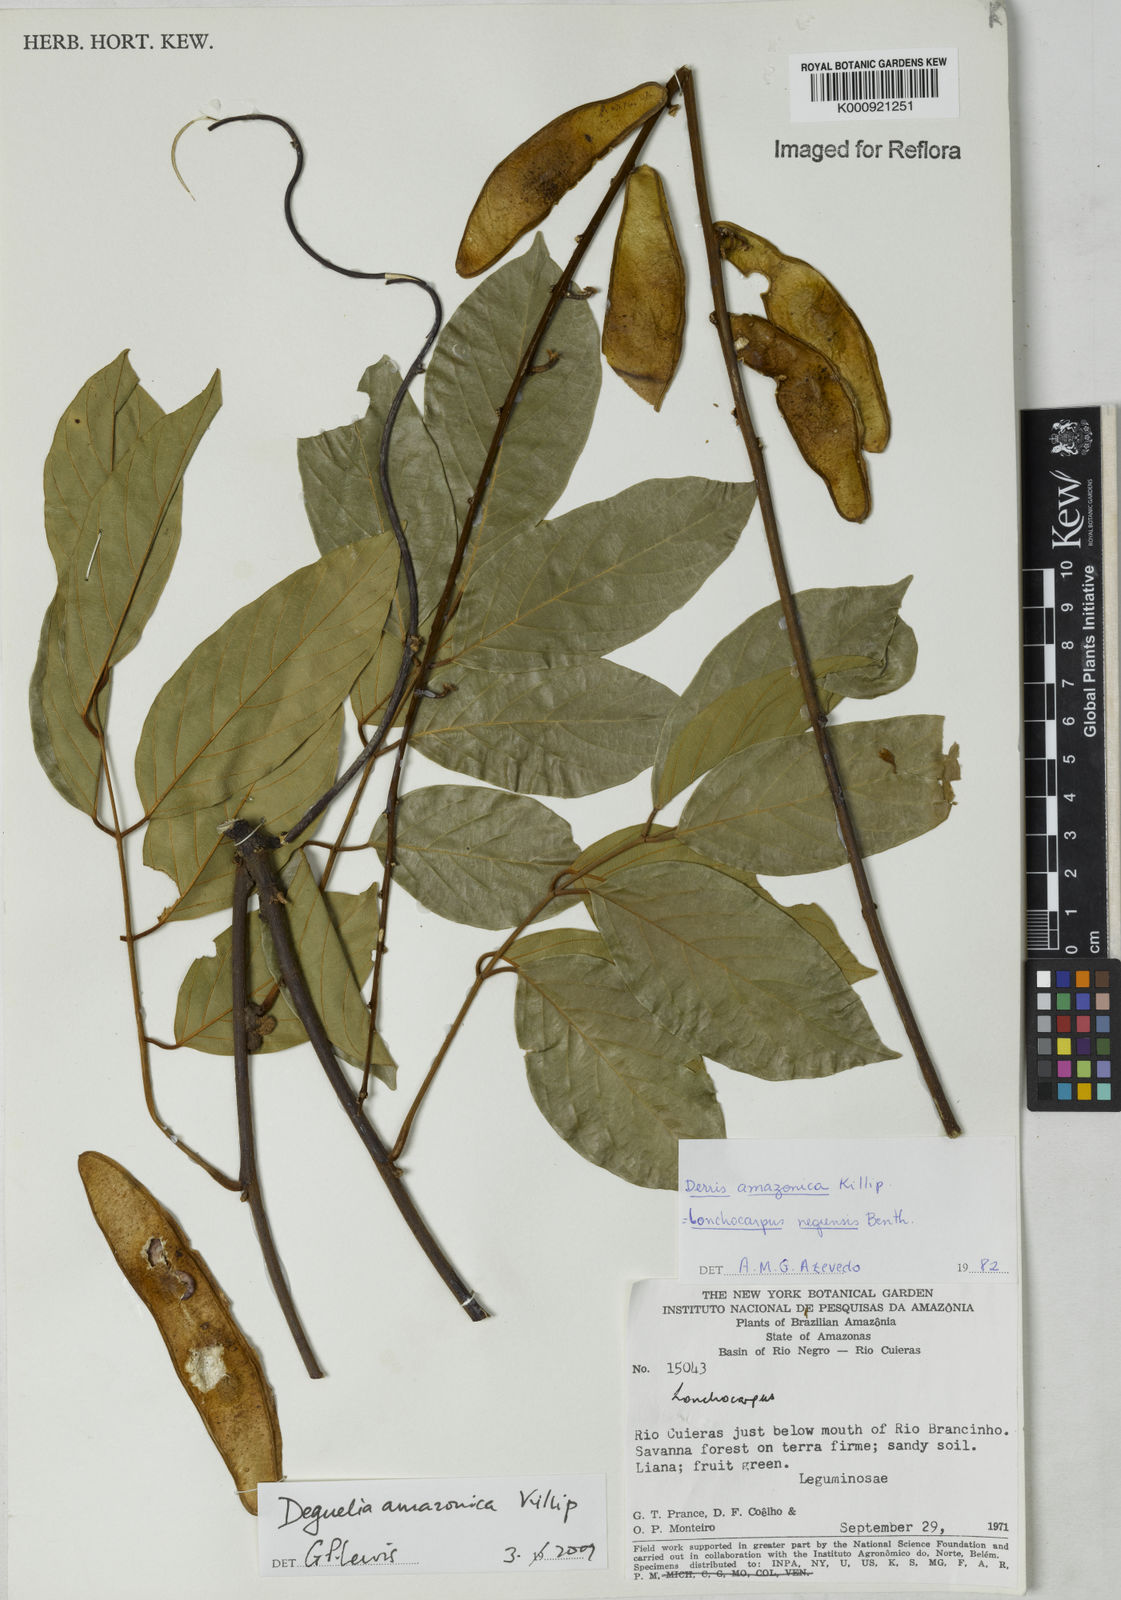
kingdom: Plantae
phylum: Tracheophyta
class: Magnoliopsida
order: Fabales
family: Fabaceae
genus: Deguelia
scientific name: Deguelia amazonica
